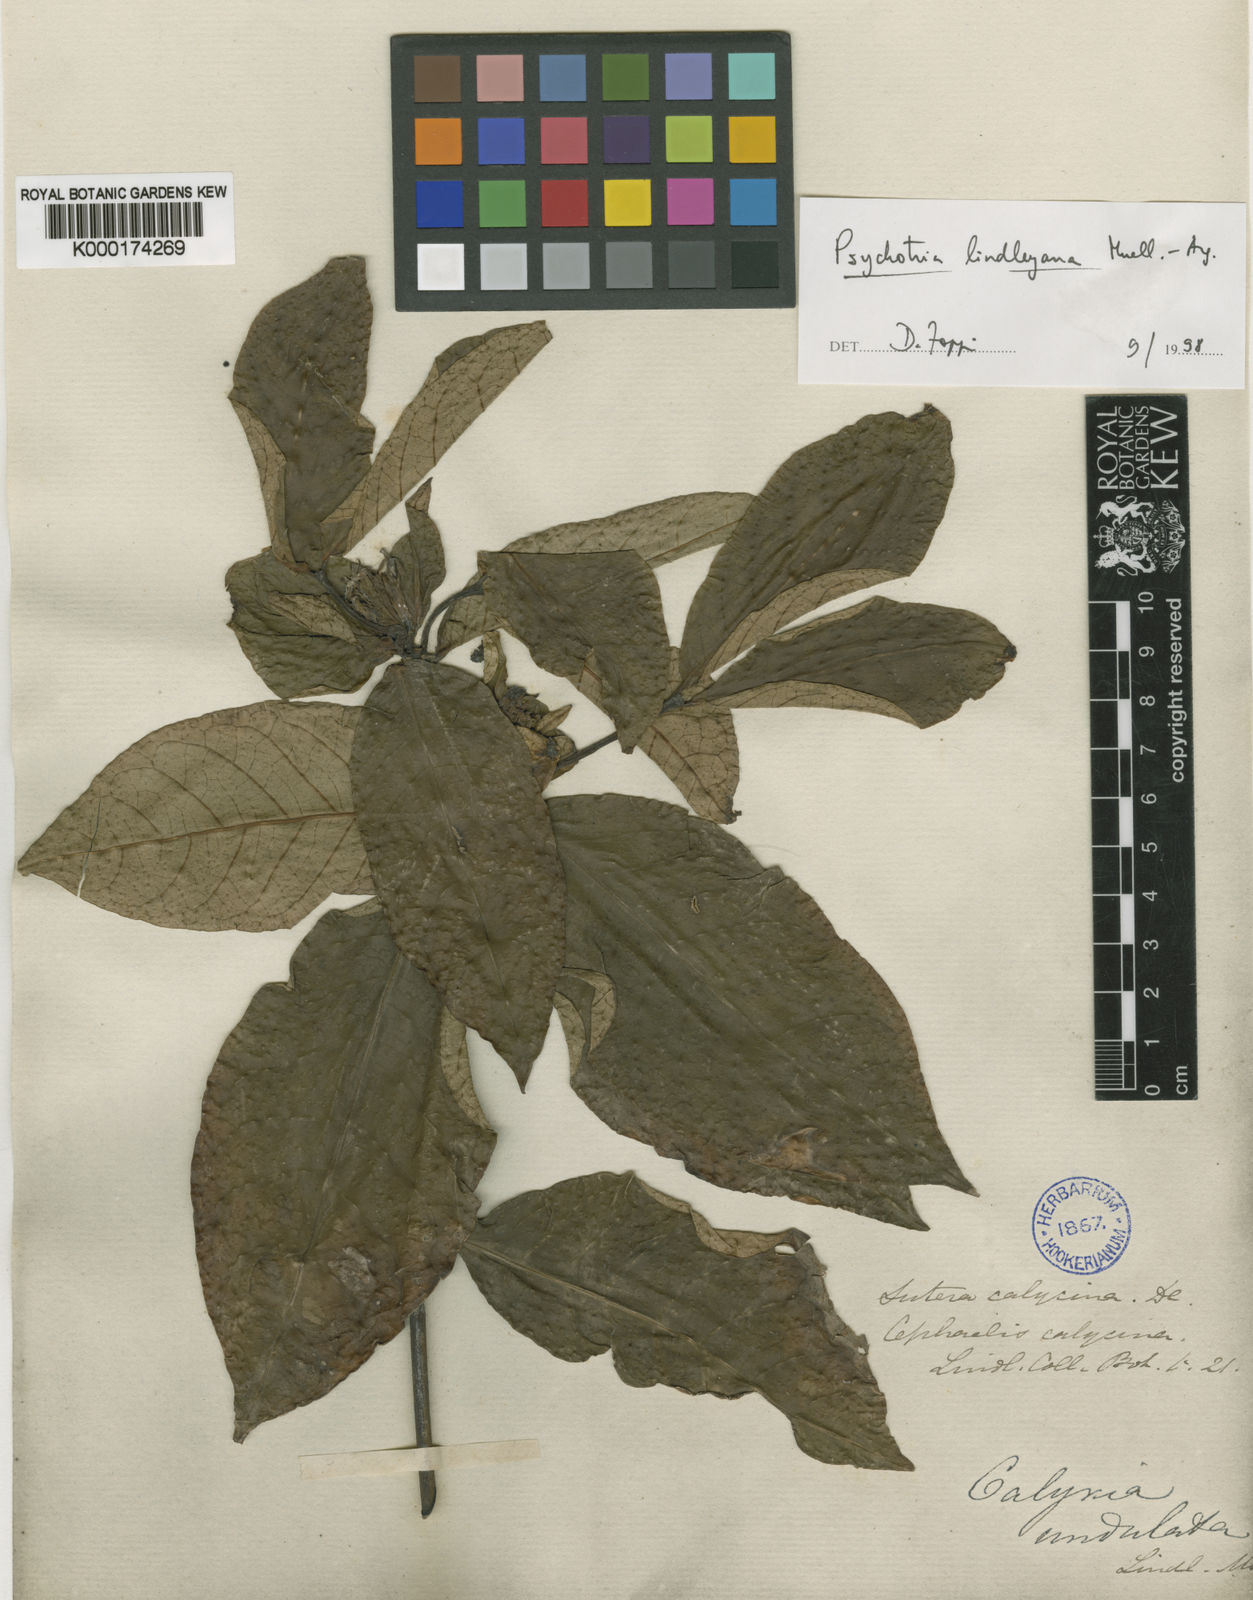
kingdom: Plantae
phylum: Tracheophyta
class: Magnoliopsida
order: Gentianales
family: Rubiaceae
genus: Psychotria
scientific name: Psychotria
